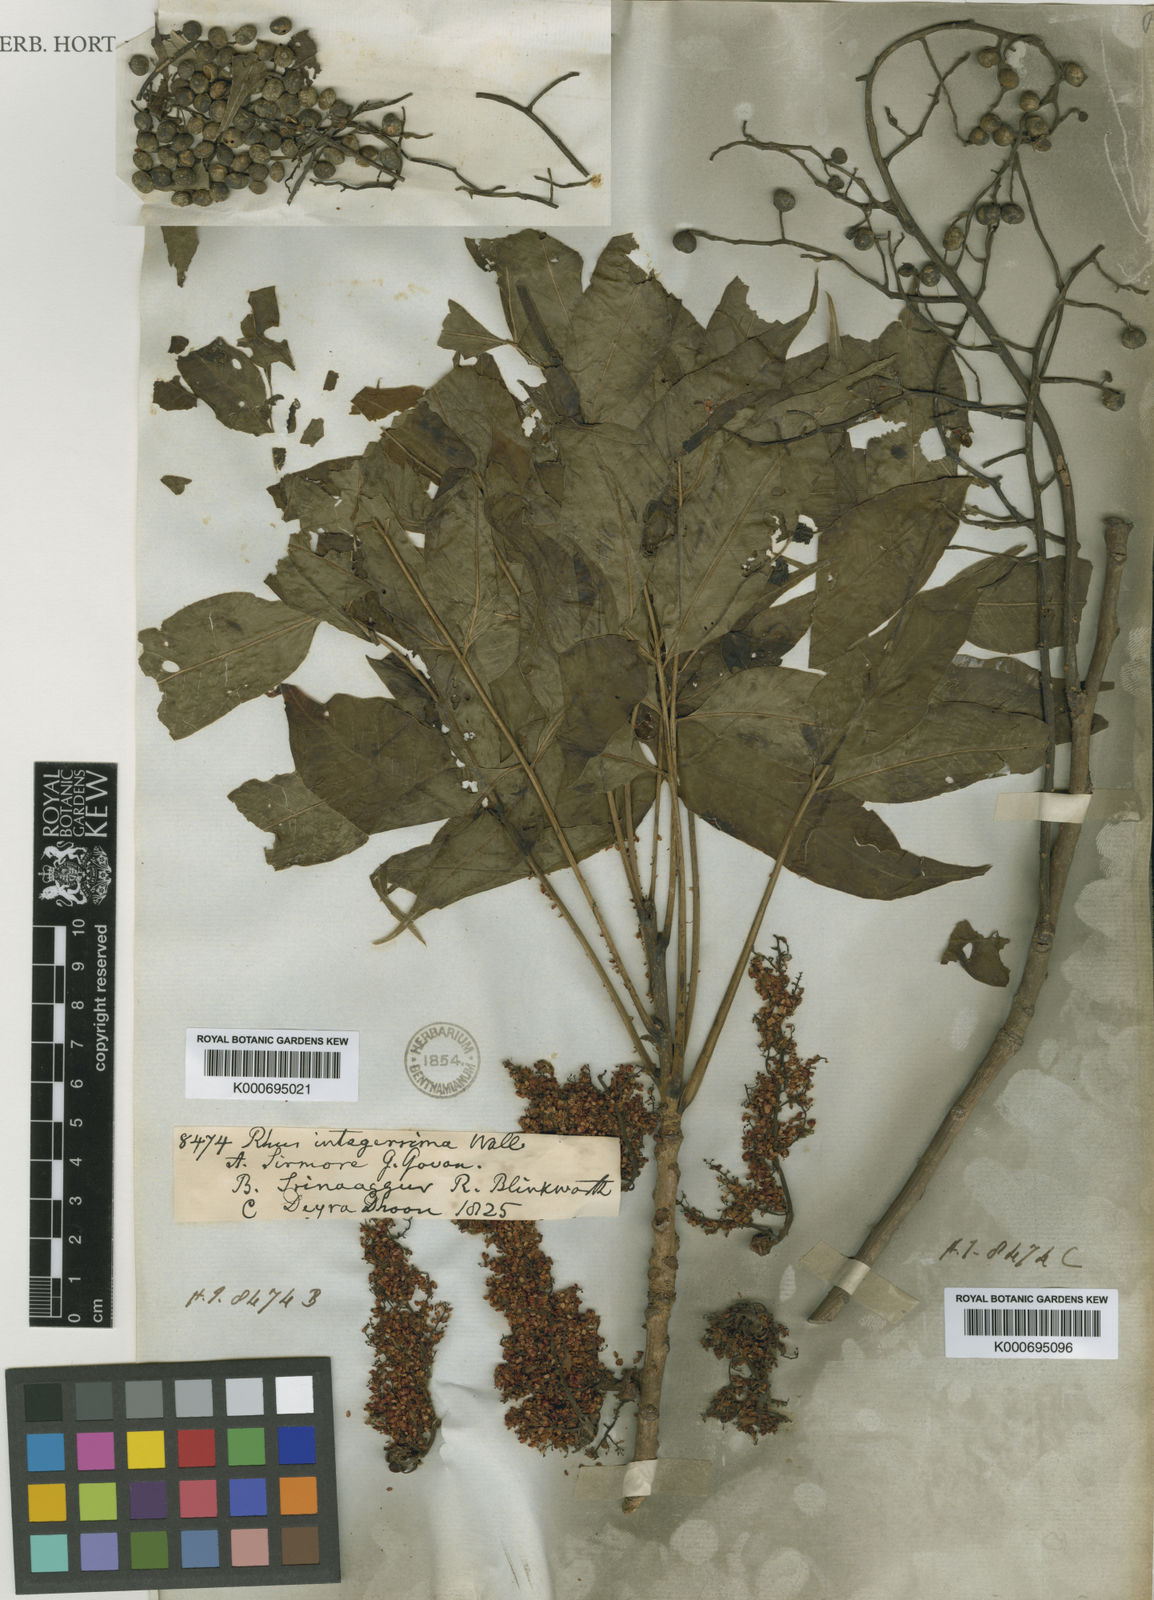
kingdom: Plantae
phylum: Tracheophyta
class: Magnoliopsida
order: Sapindales
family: Anacardiaceae
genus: Rhus
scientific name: Rhus chinensis
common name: Chinese gall
